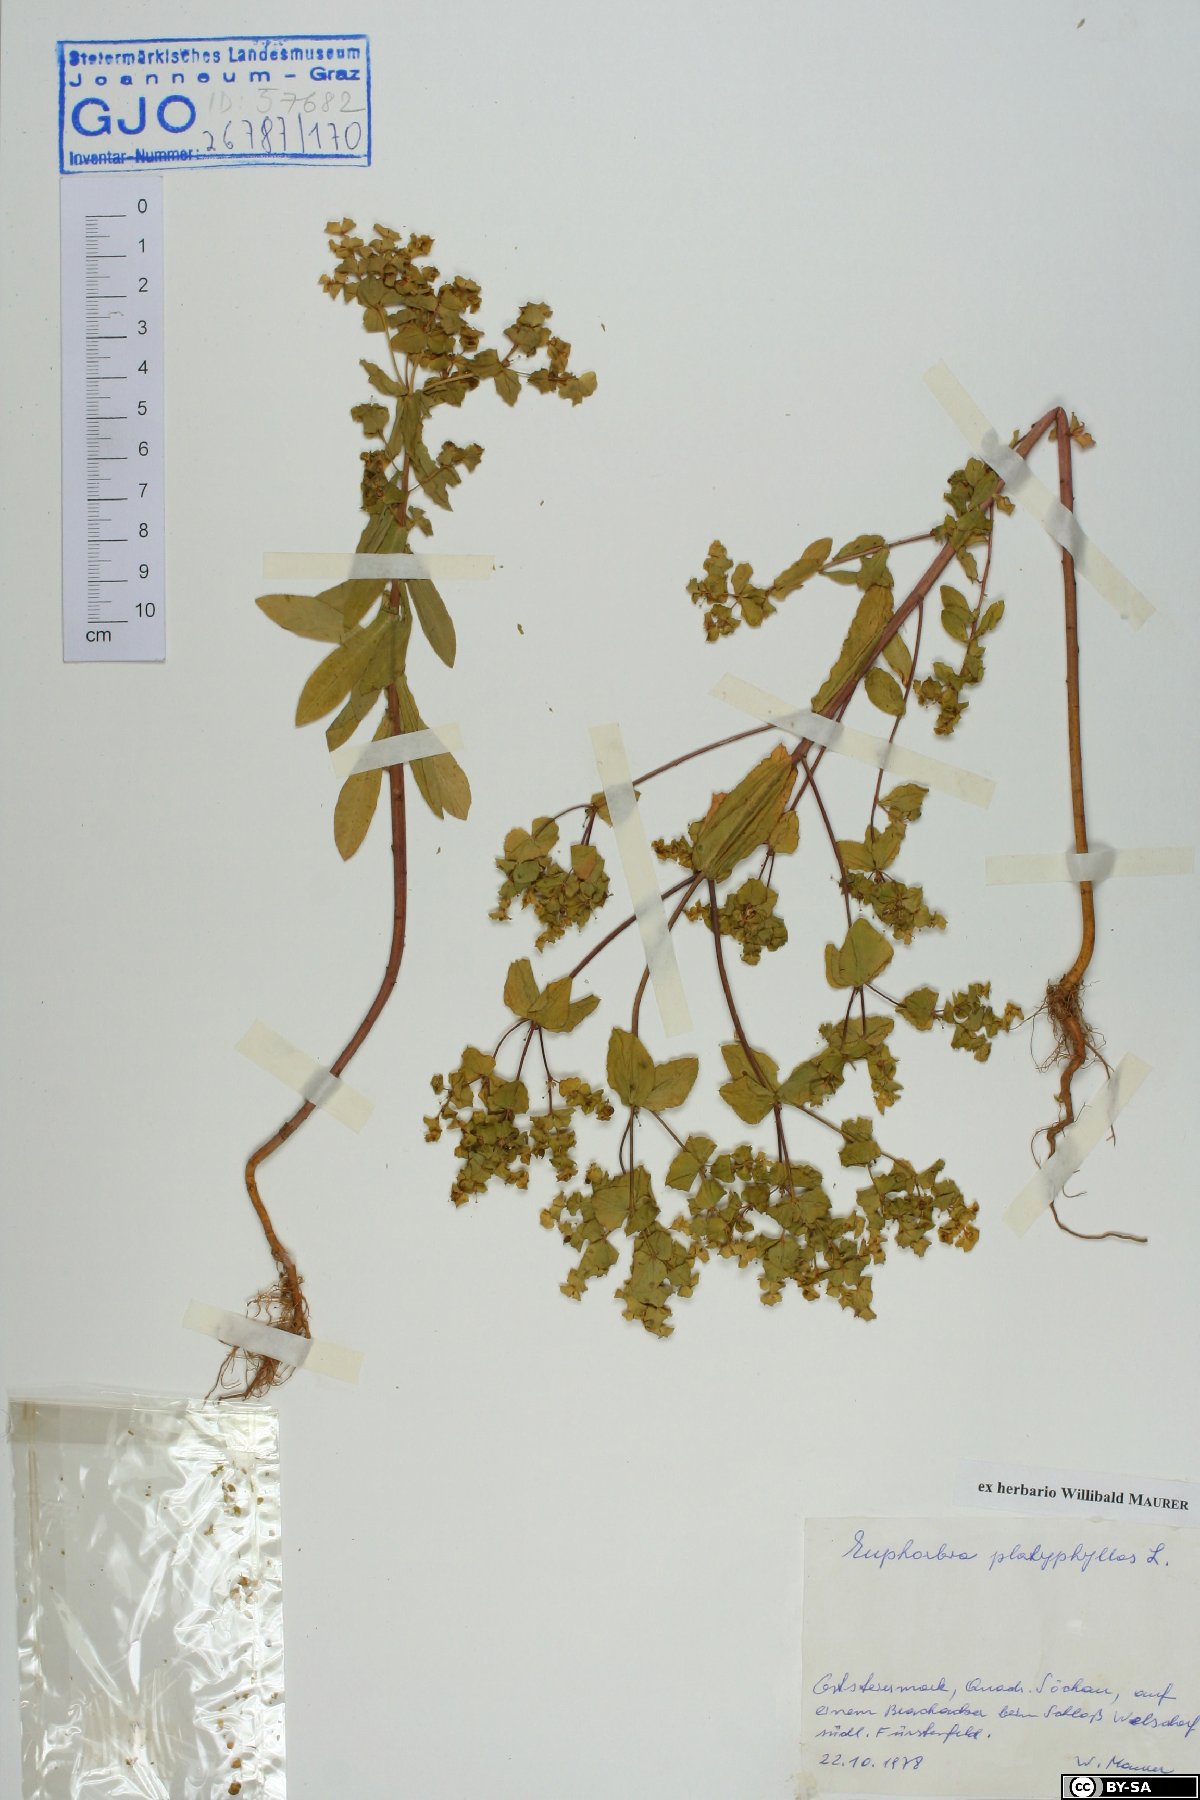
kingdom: Plantae
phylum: Tracheophyta
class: Magnoliopsida
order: Malpighiales
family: Euphorbiaceae
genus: Euphorbia
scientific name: Euphorbia platyphyllos
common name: Broad-leaved spurge
